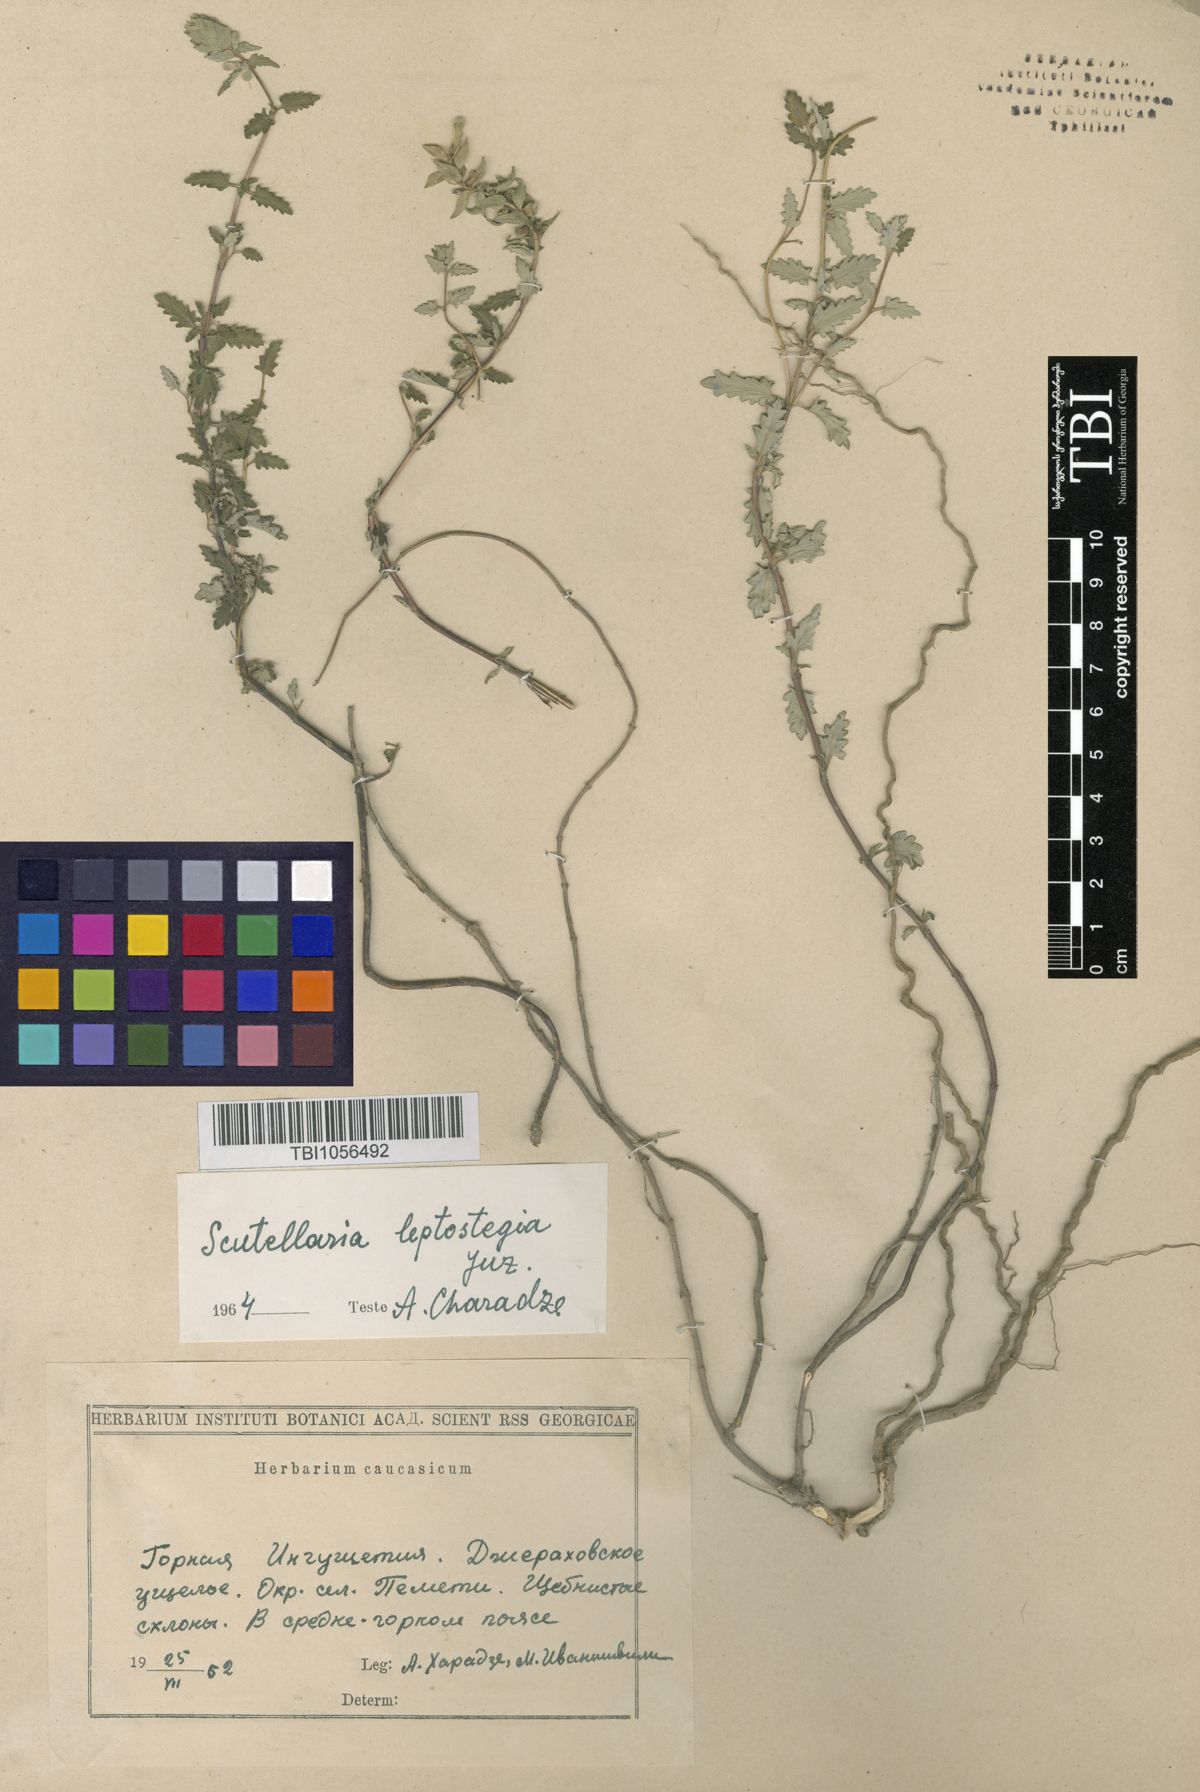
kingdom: Plantae
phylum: Tracheophyta
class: Magnoliopsida
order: Lamiales
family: Lamiaceae
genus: Scutellaria
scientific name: Scutellaria leptostegia
